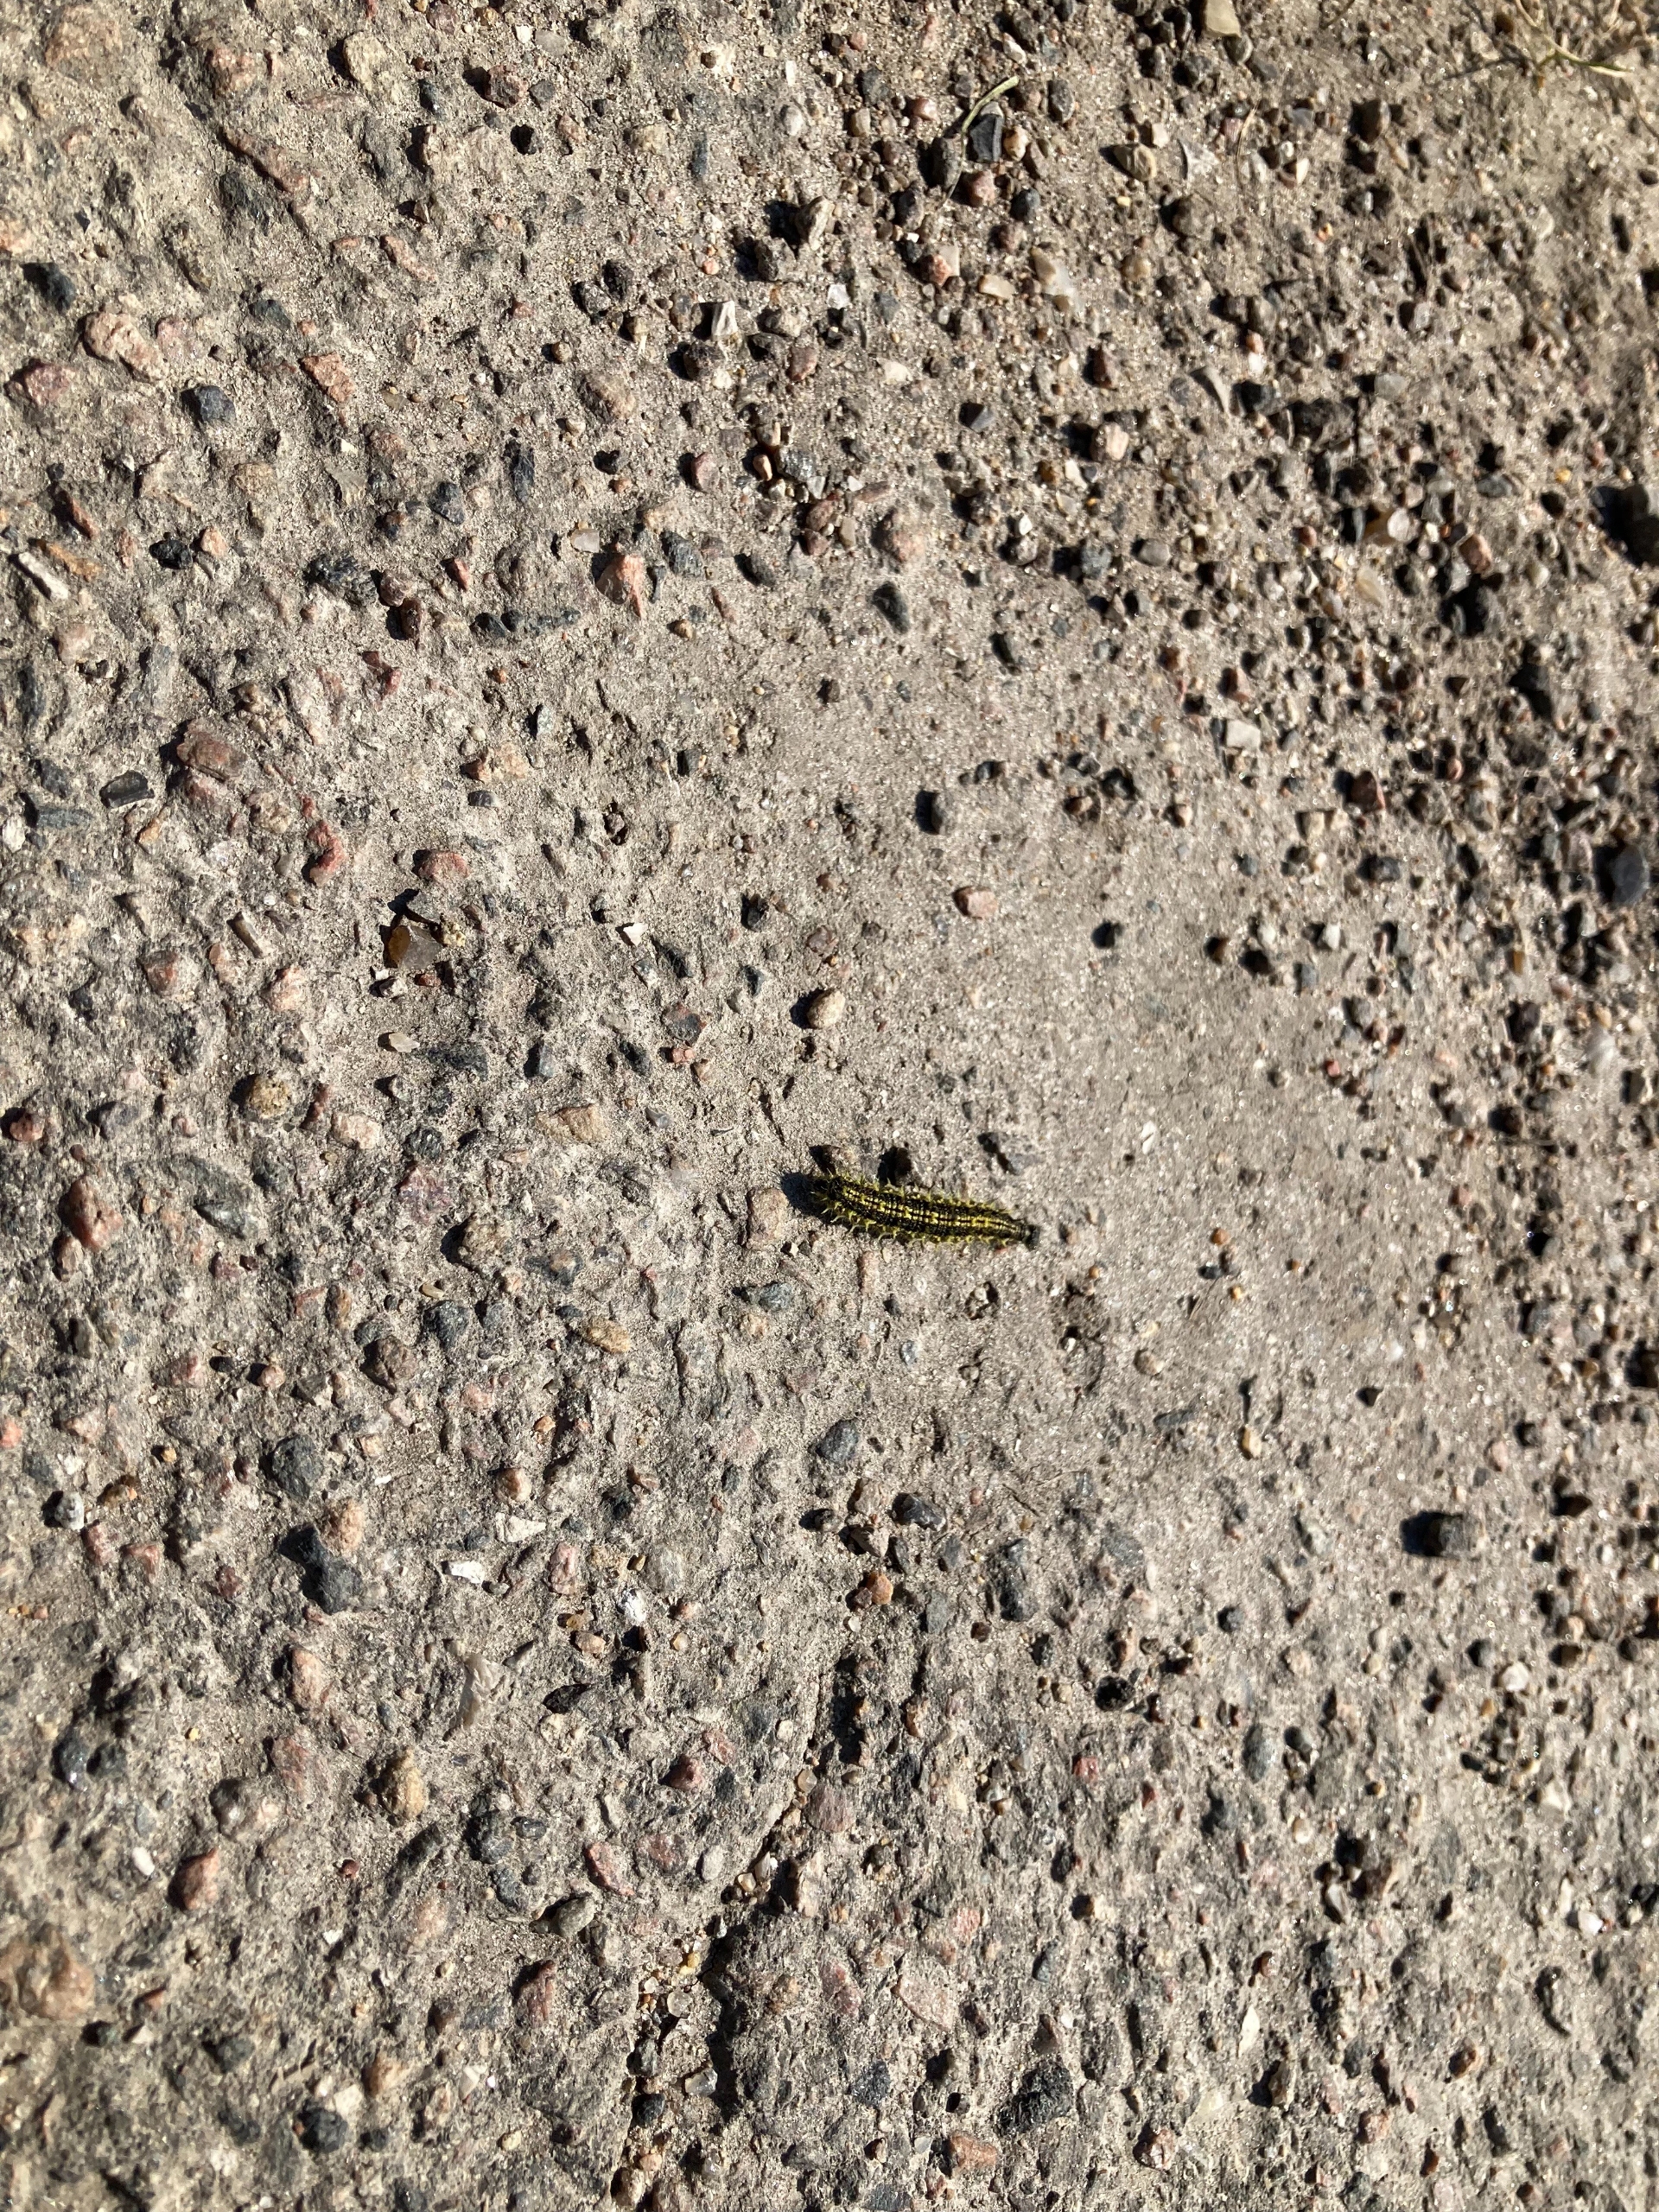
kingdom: Animalia
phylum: Arthropoda
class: Insecta
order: Lepidoptera
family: Nymphalidae
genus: Aglais
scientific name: Aglais urticae
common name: Nældens takvinge
